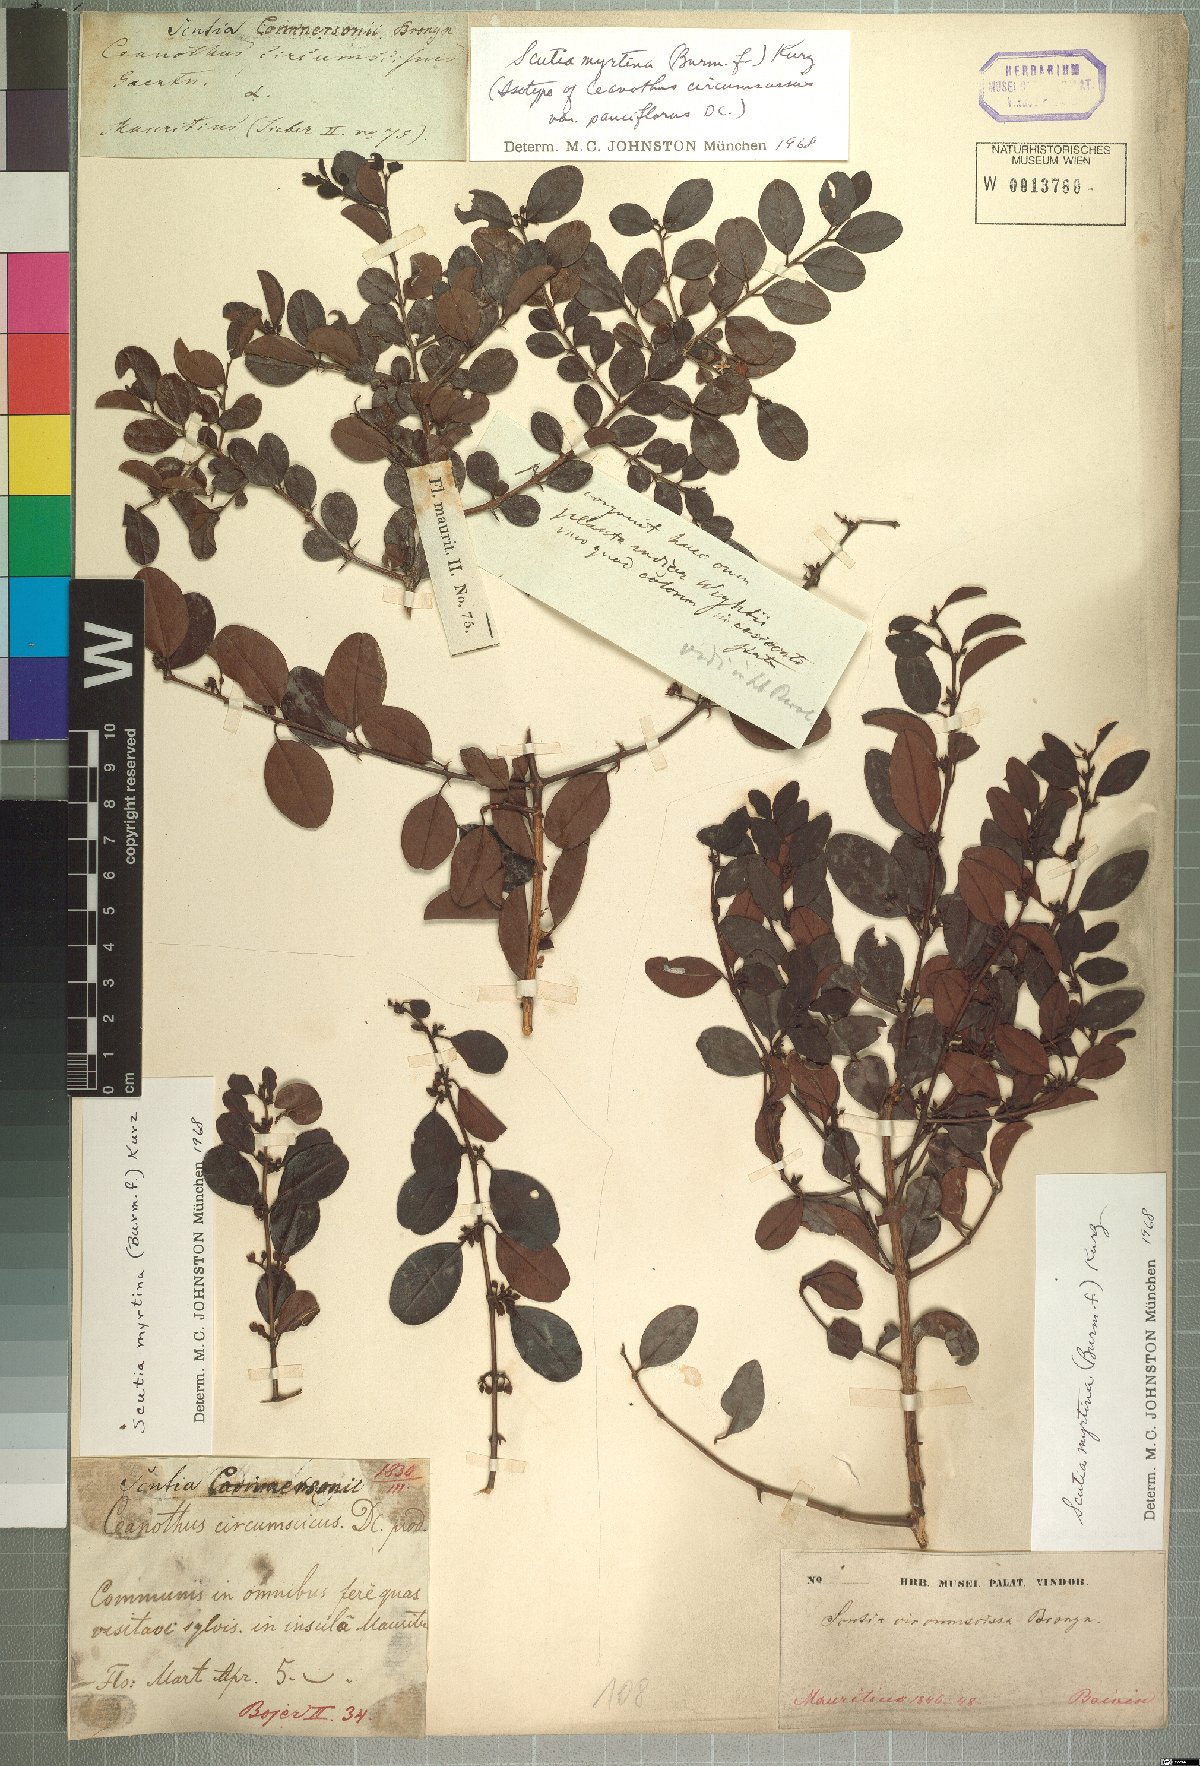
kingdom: Plantae
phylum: Tracheophyta
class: Magnoliopsida
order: Rosales
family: Rhamnaceae
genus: Scutia
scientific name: Scutia myrtina
